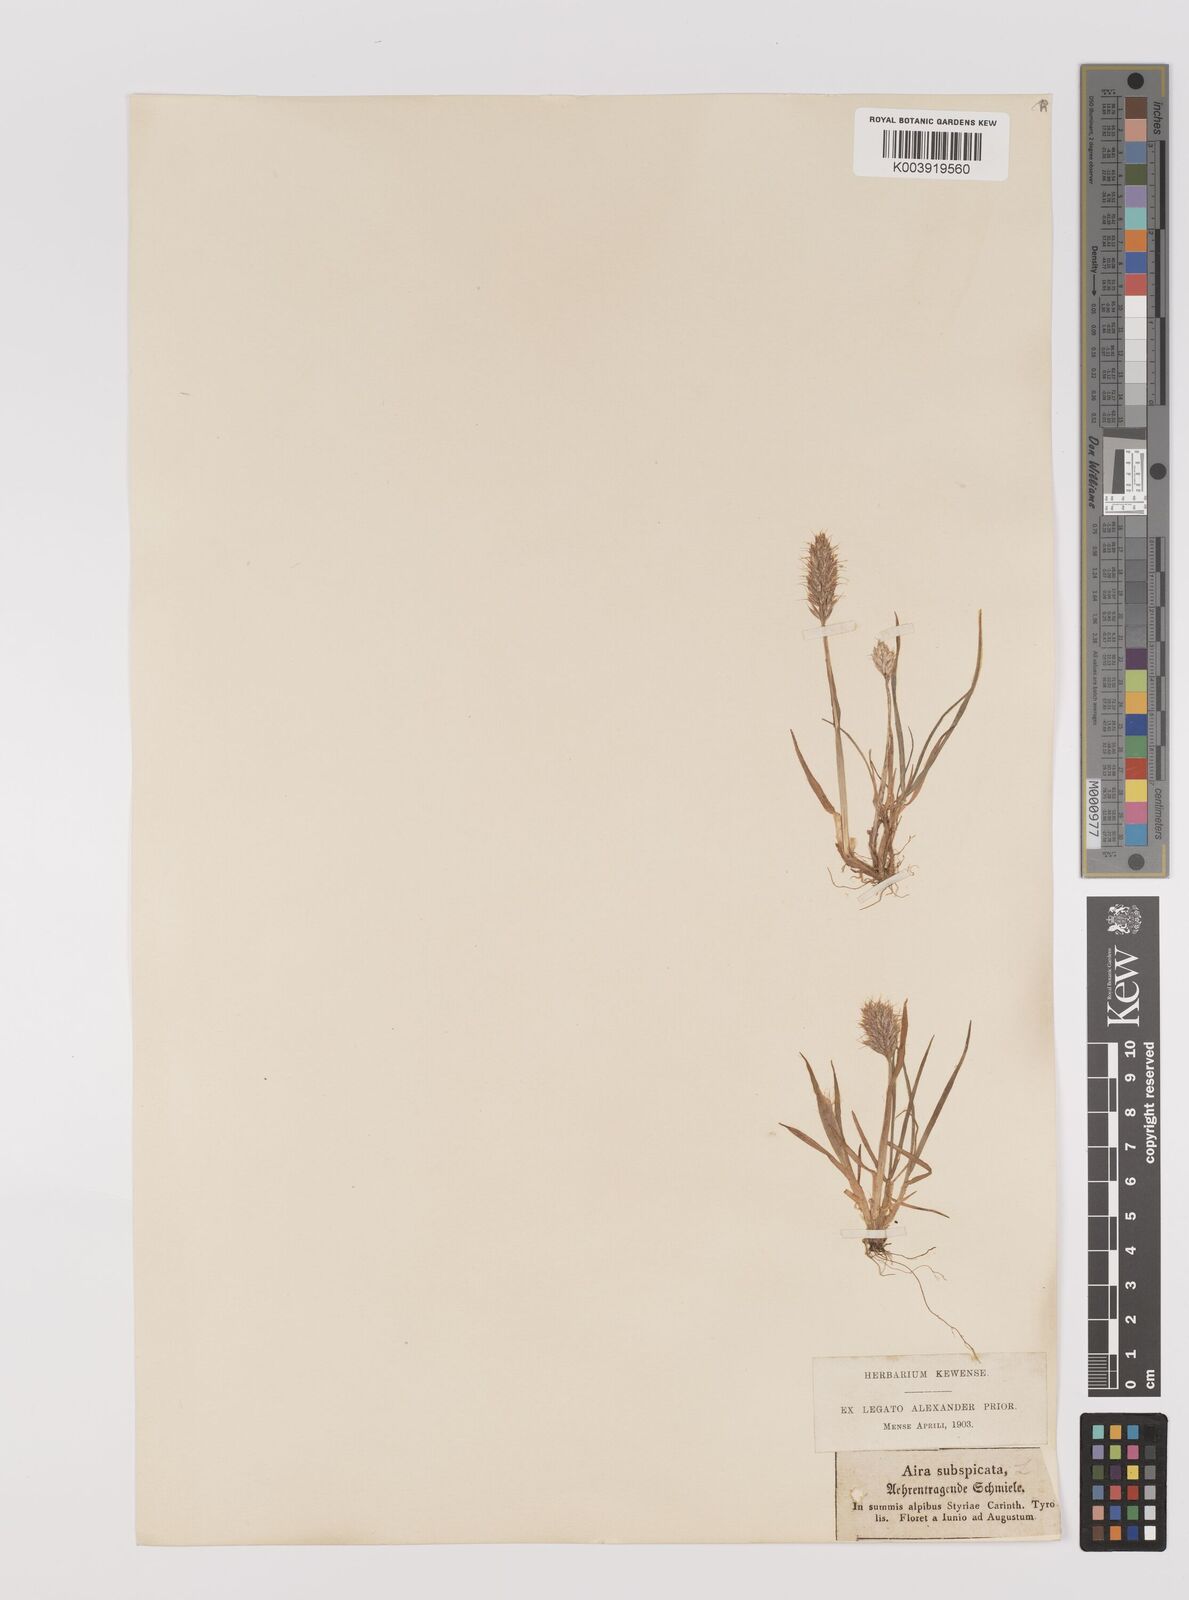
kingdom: Plantae
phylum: Tracheophyta
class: Liliopsida
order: Poales
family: Poaceae
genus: Koeleria
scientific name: Koeleria spicata
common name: Mountain trisetum
